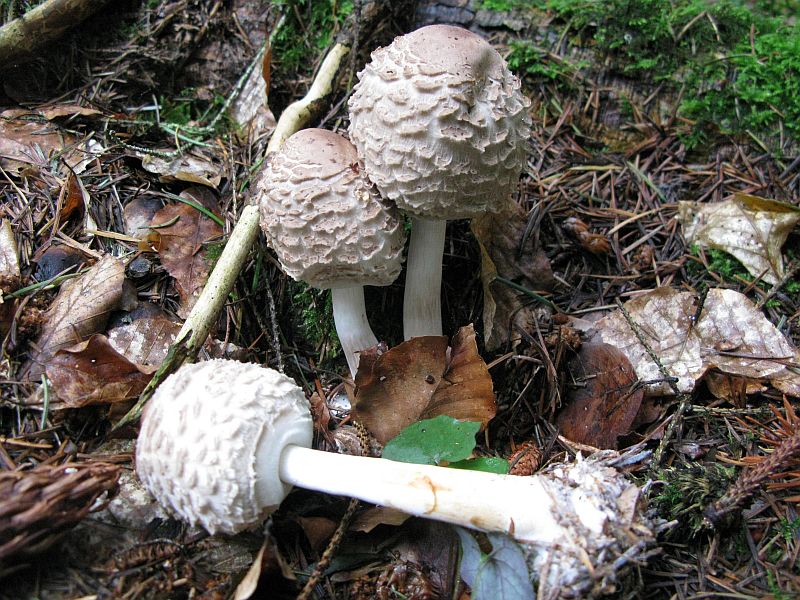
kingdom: Fungi
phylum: Basidiomycota
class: Agaricomycetes
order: Agaricales
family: Agaricaceae
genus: Chlorophyllum
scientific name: Chlorophyllum olivieri
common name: almindelig rabarberhat
